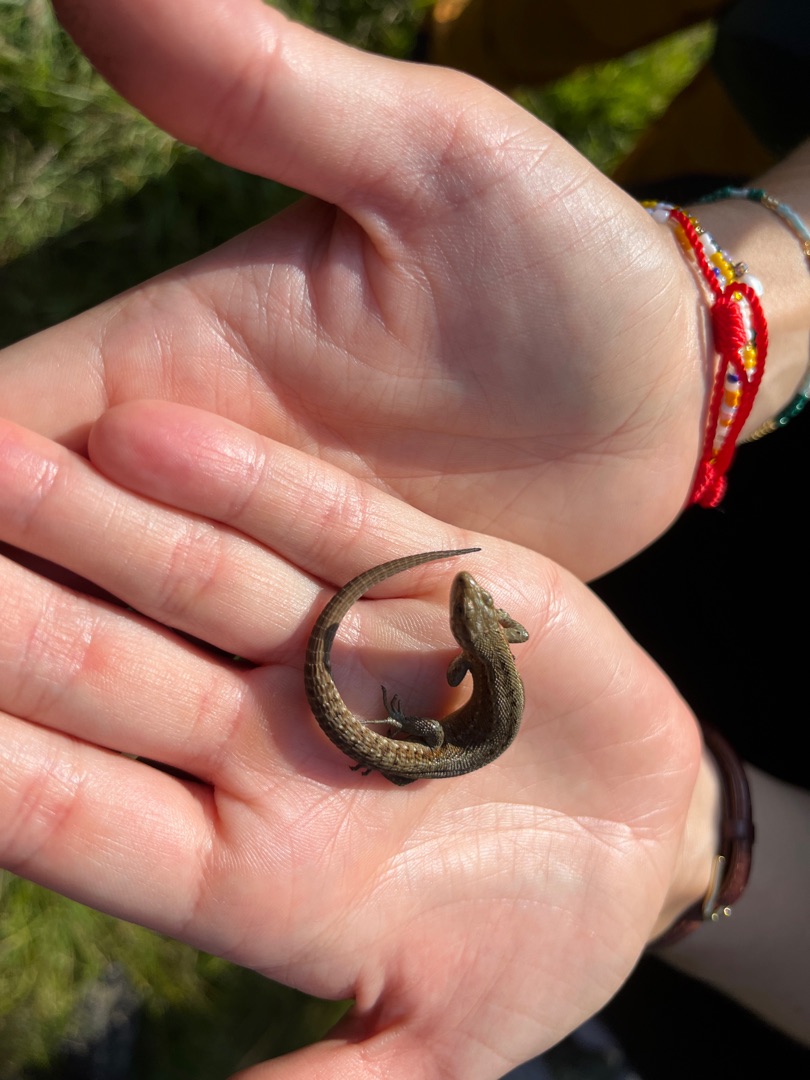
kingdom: Animalia
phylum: Chordata
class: Squamata
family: Lacertidae
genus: Zootoca
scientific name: Zootoca vivipara
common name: Skovfirben
